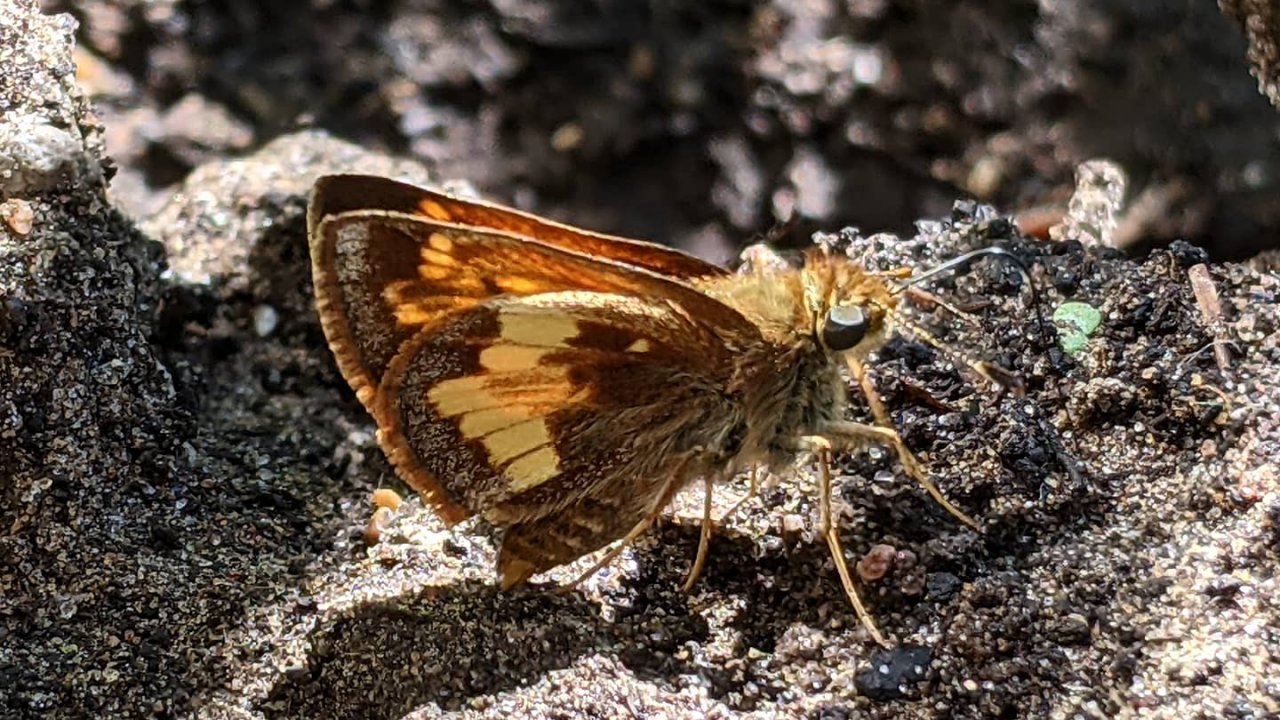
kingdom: Animalia
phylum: Arthropoda
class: Insecta
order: Lepidoptera
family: Hesperiidae
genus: Lon
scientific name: Lon hobomok
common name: Hobomok Skipper
